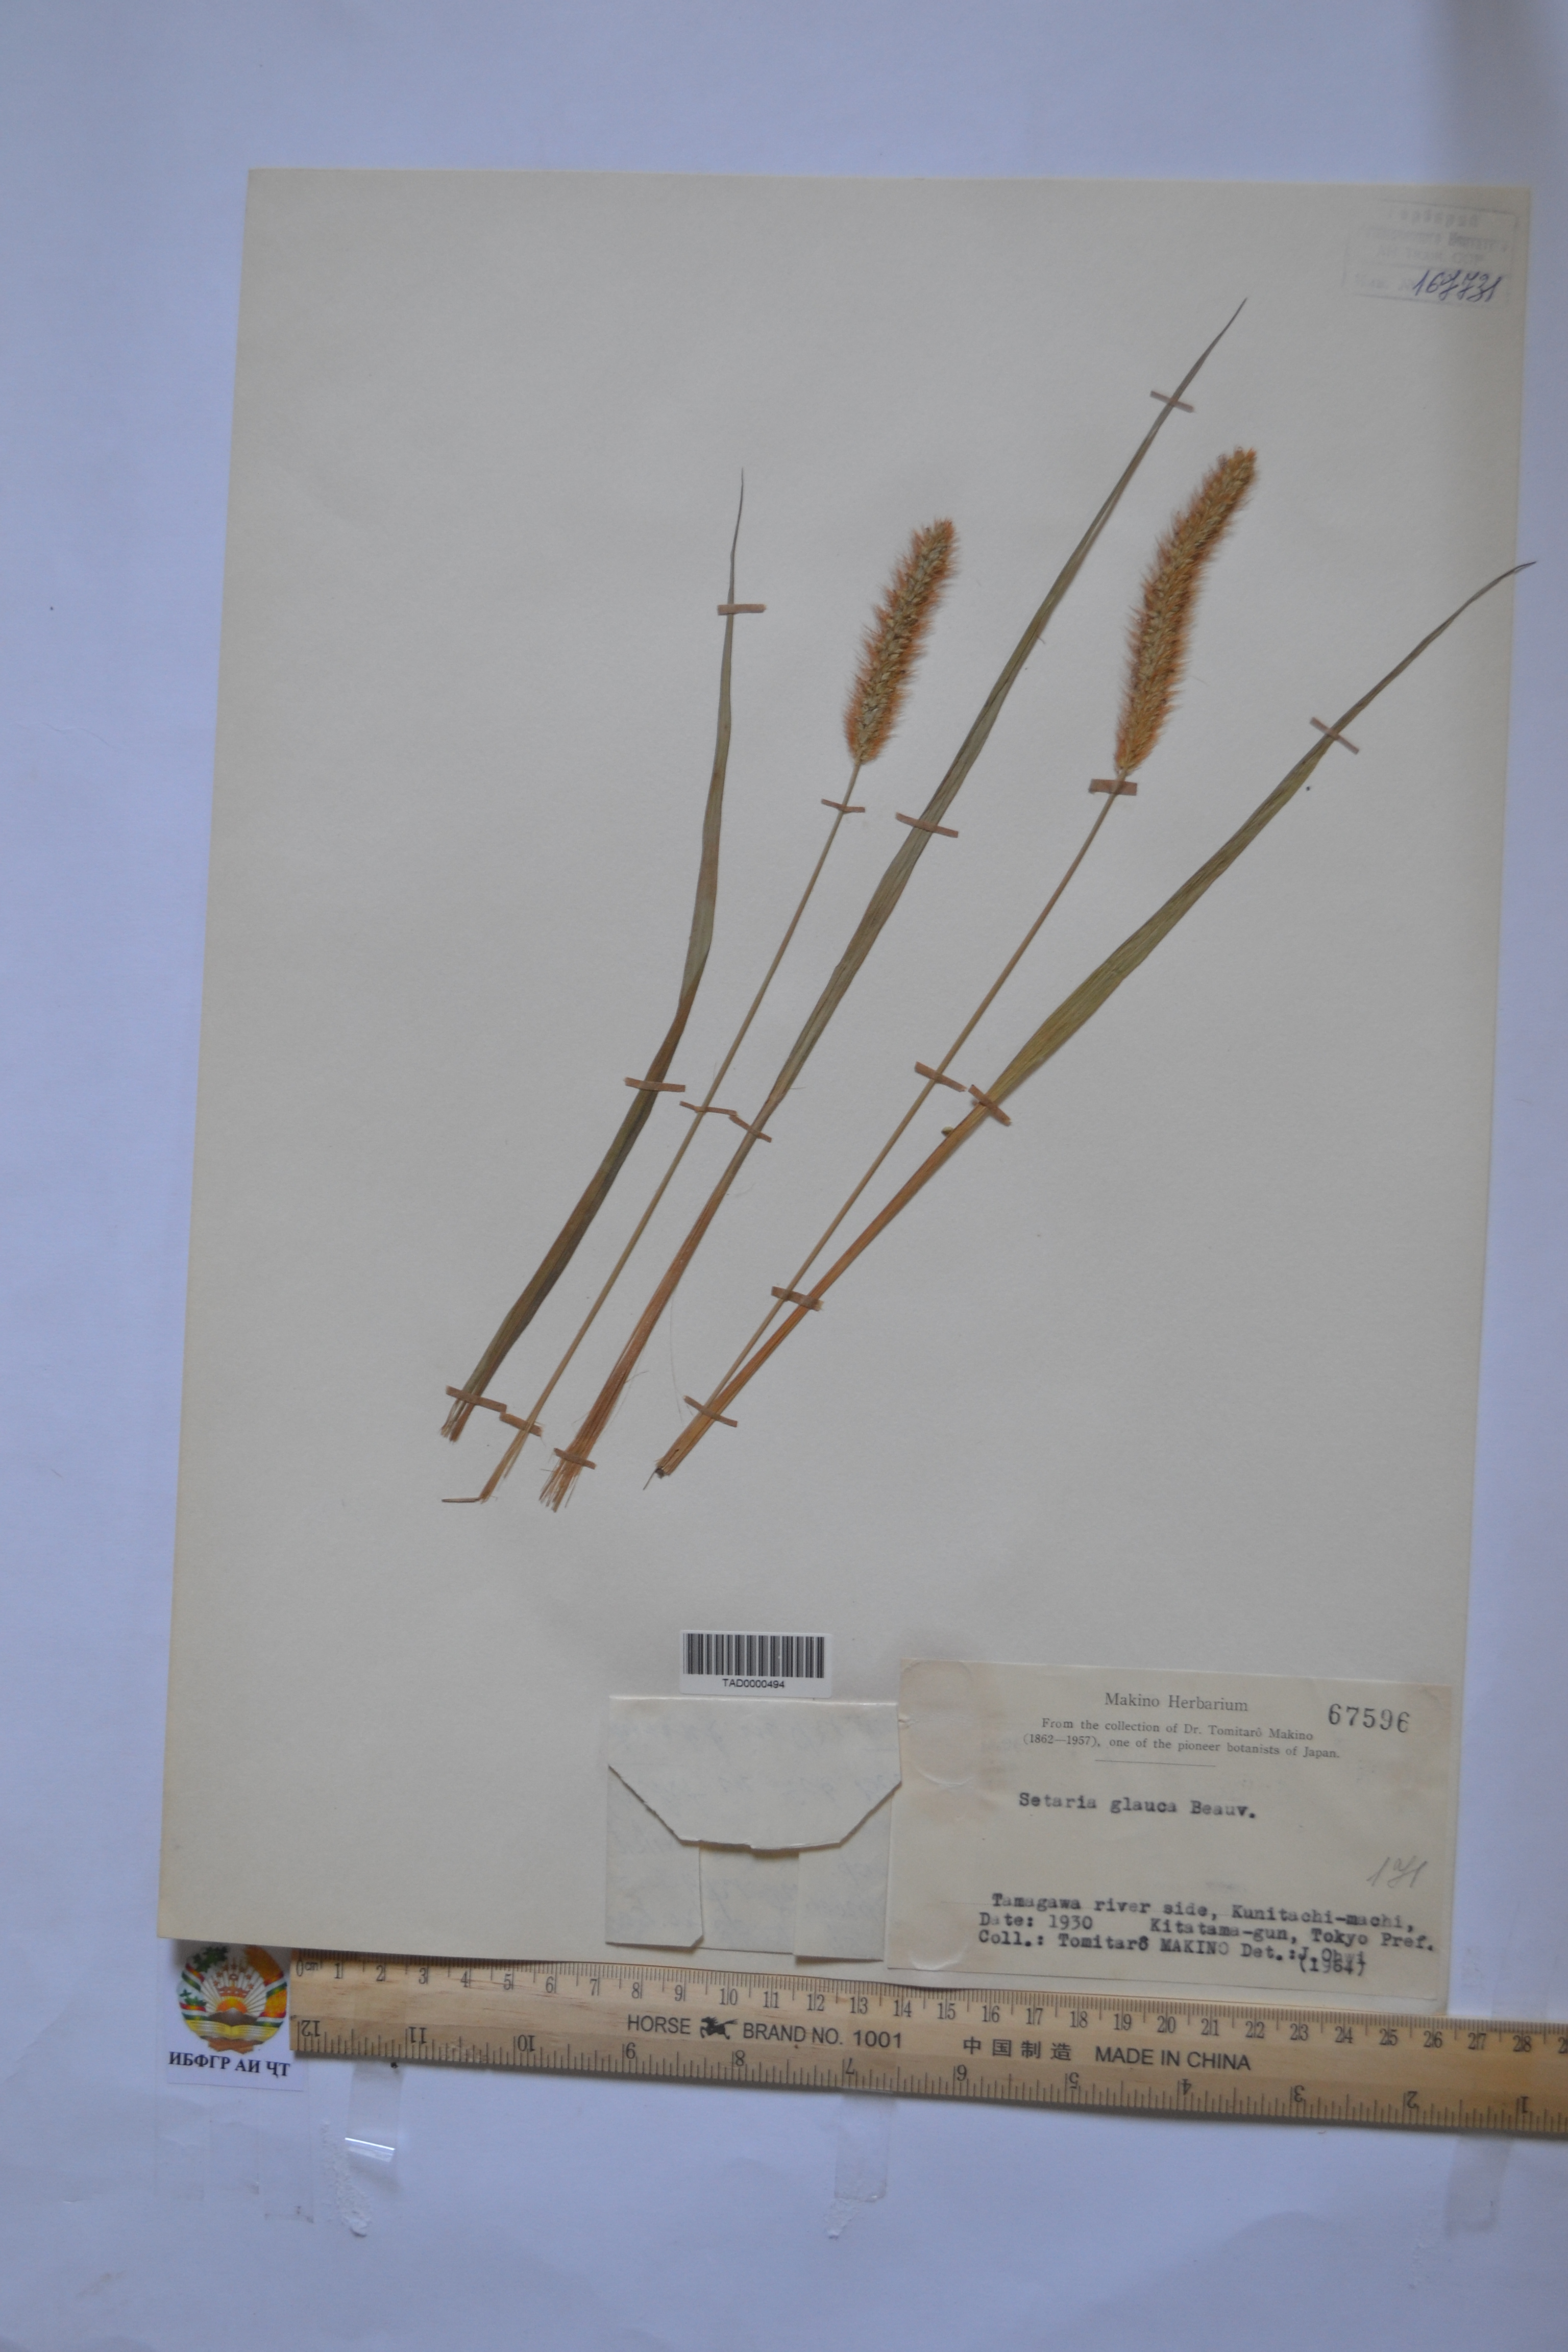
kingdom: Plantae
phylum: Tracheophyta
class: Liliopsida
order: Poales
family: Poaceae
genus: Cenchrus
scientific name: Cenchrus americanus
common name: Pearl millet
